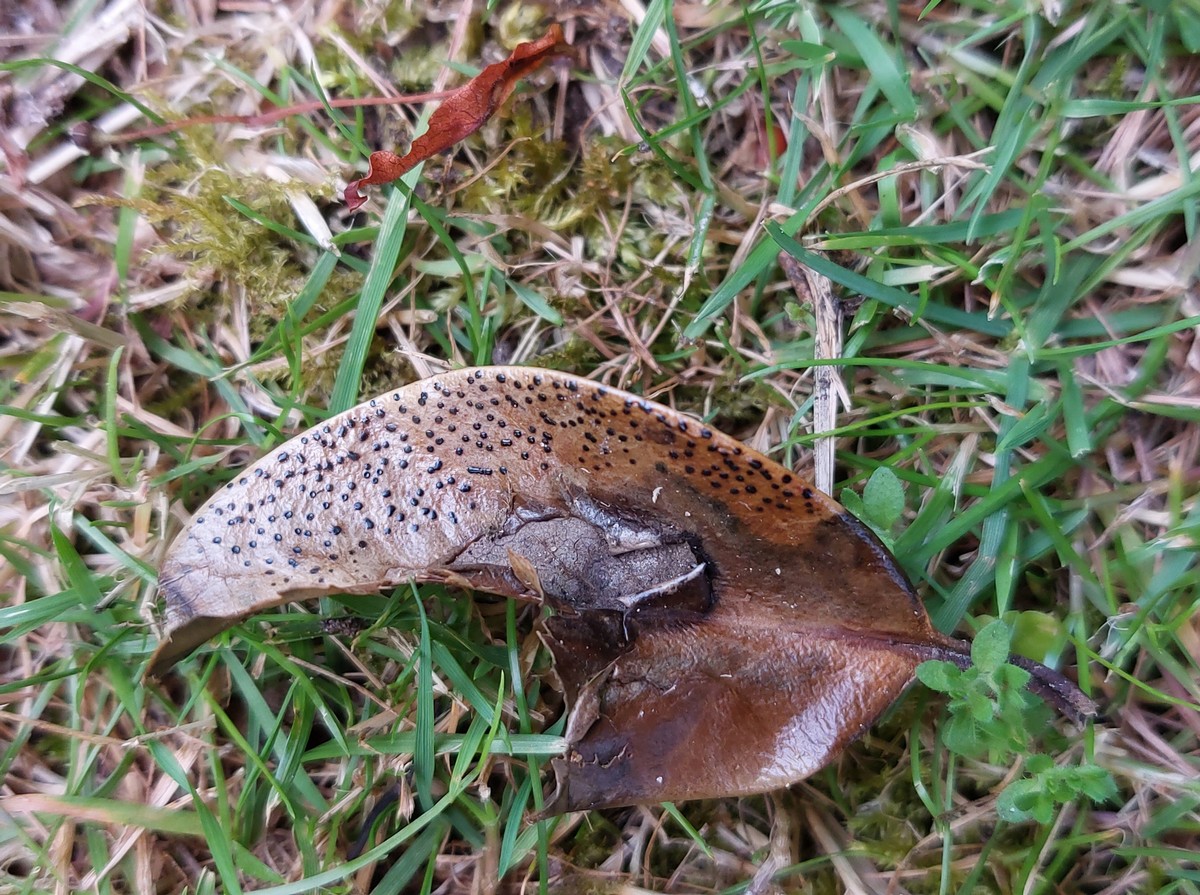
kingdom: Fungi
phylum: Ascomycota
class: Leotiomycetes
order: Helotiales
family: Cenangiaceae
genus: Trochila
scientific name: Trochila ilicina
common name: kristtorn-lågskive
